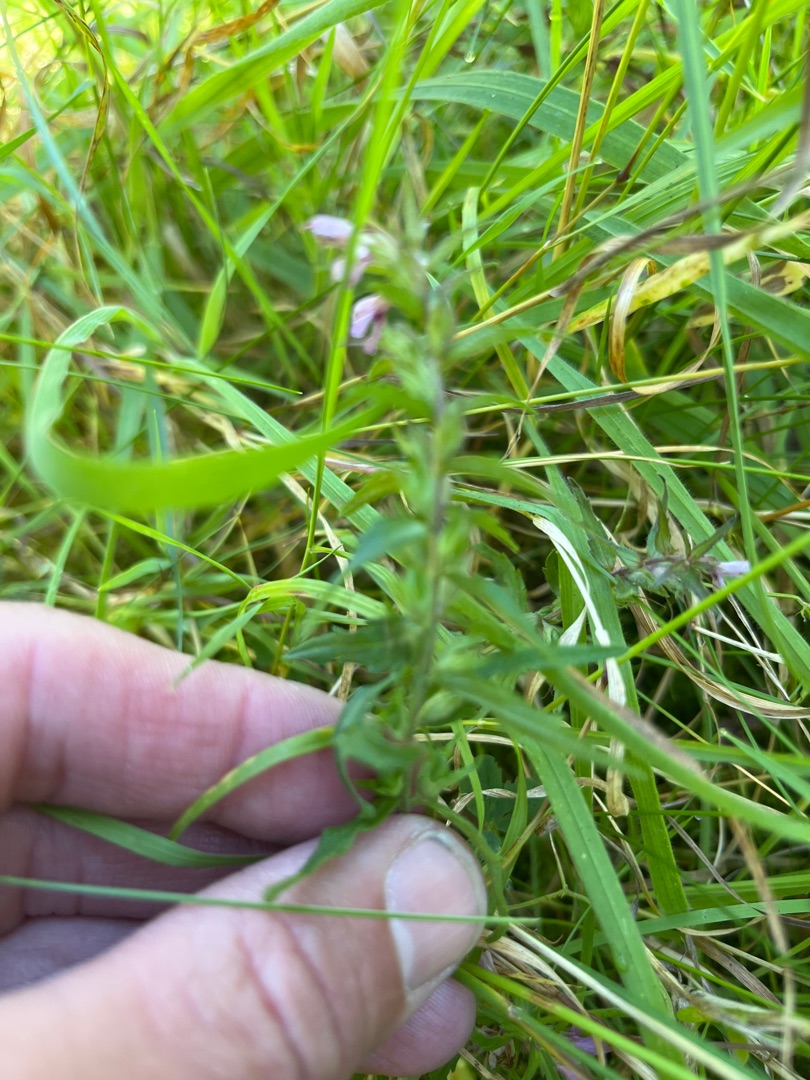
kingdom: Plantae
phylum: Tracheophyta
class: Magnoliopsida
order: Lamiales
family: Orobanchaceae
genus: Odontites
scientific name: Odontites vulgaris
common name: Høst-rødtop
